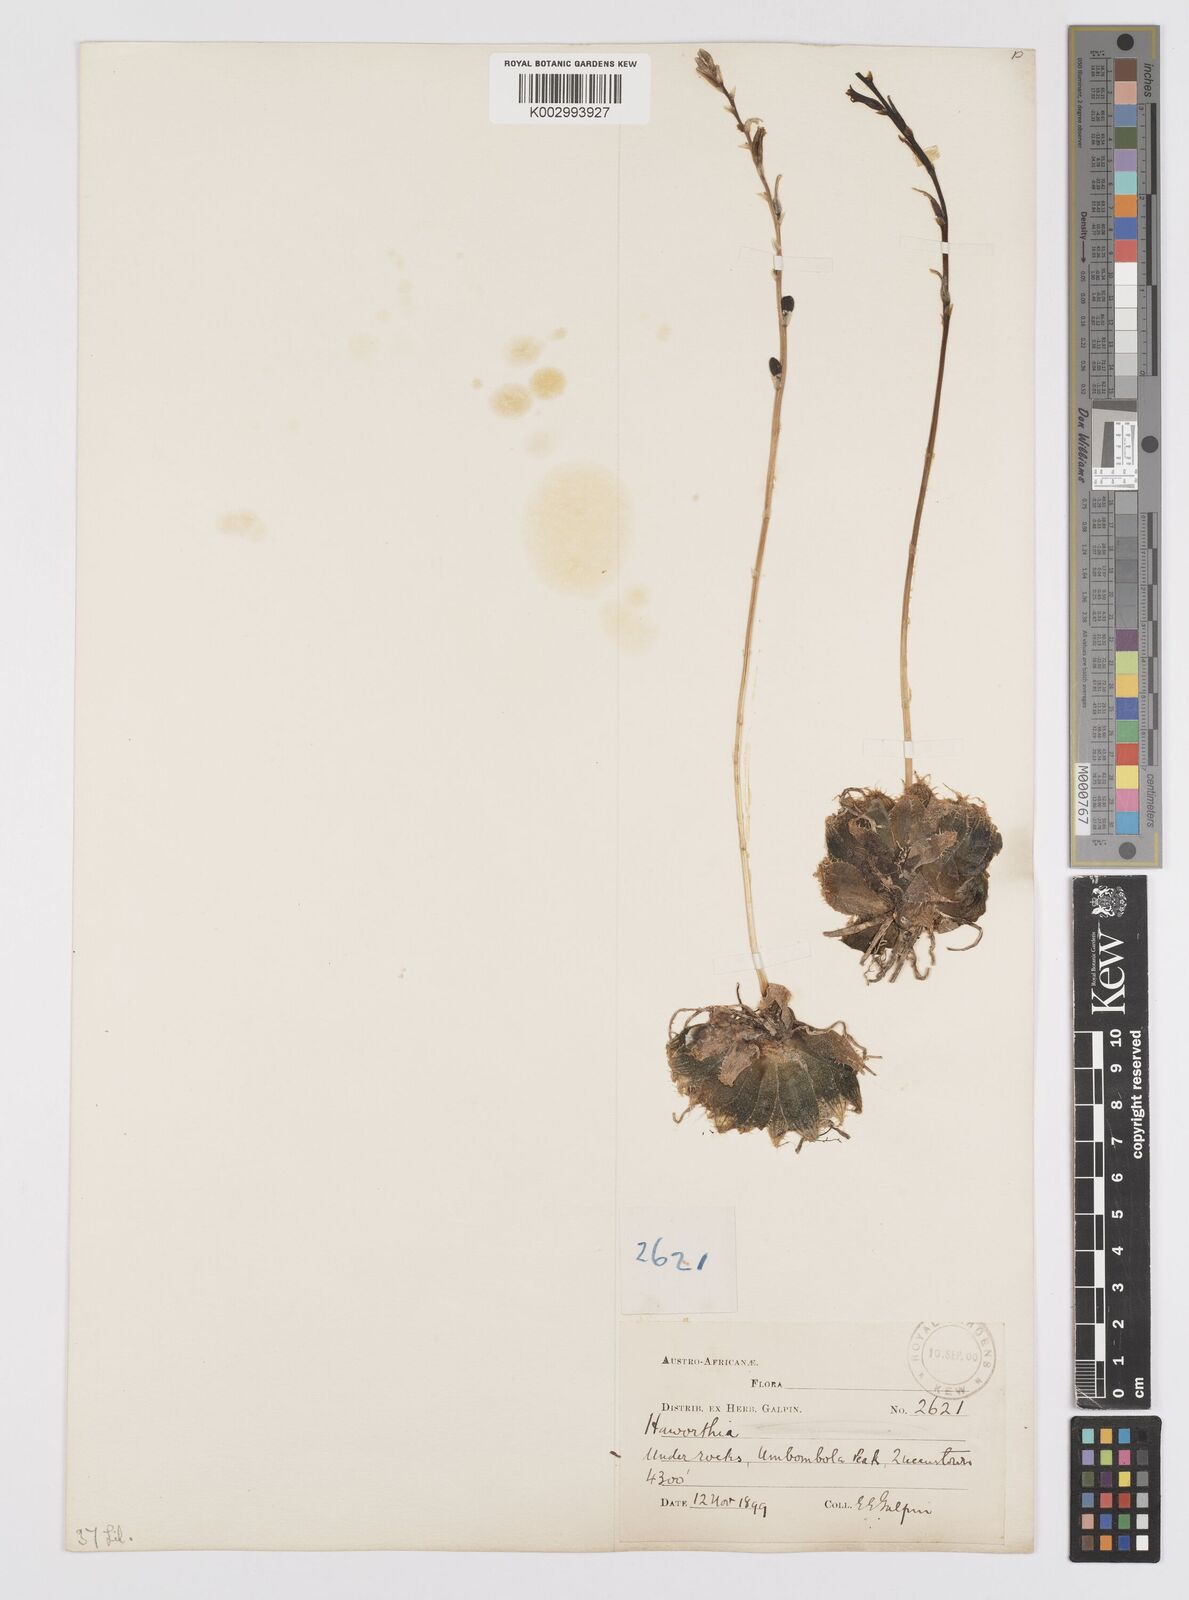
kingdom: Plantae
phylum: Tracheophyta
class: Liliopsida
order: Asparagales
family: Asphodelaceae
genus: Haworthia
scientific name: Haworthia bolusii
